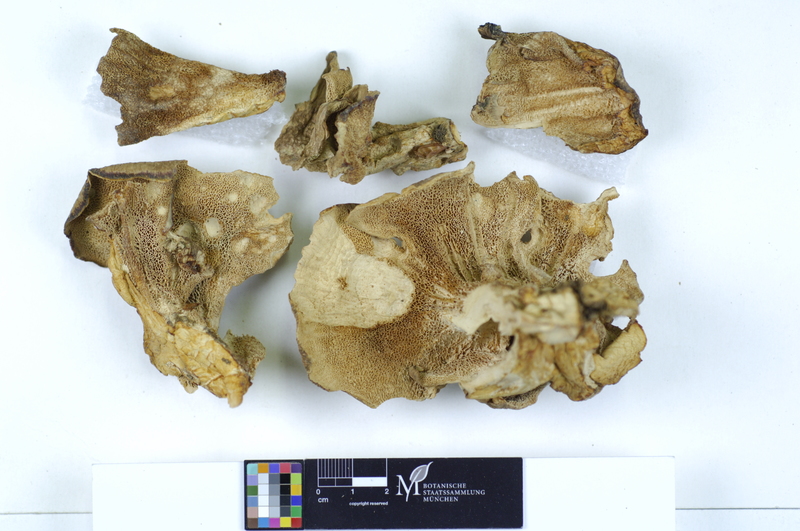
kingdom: Plantae
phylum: Tracheophyta
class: Pinopsida
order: Pinales
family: Pinaceae
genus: Abies
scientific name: Abies
